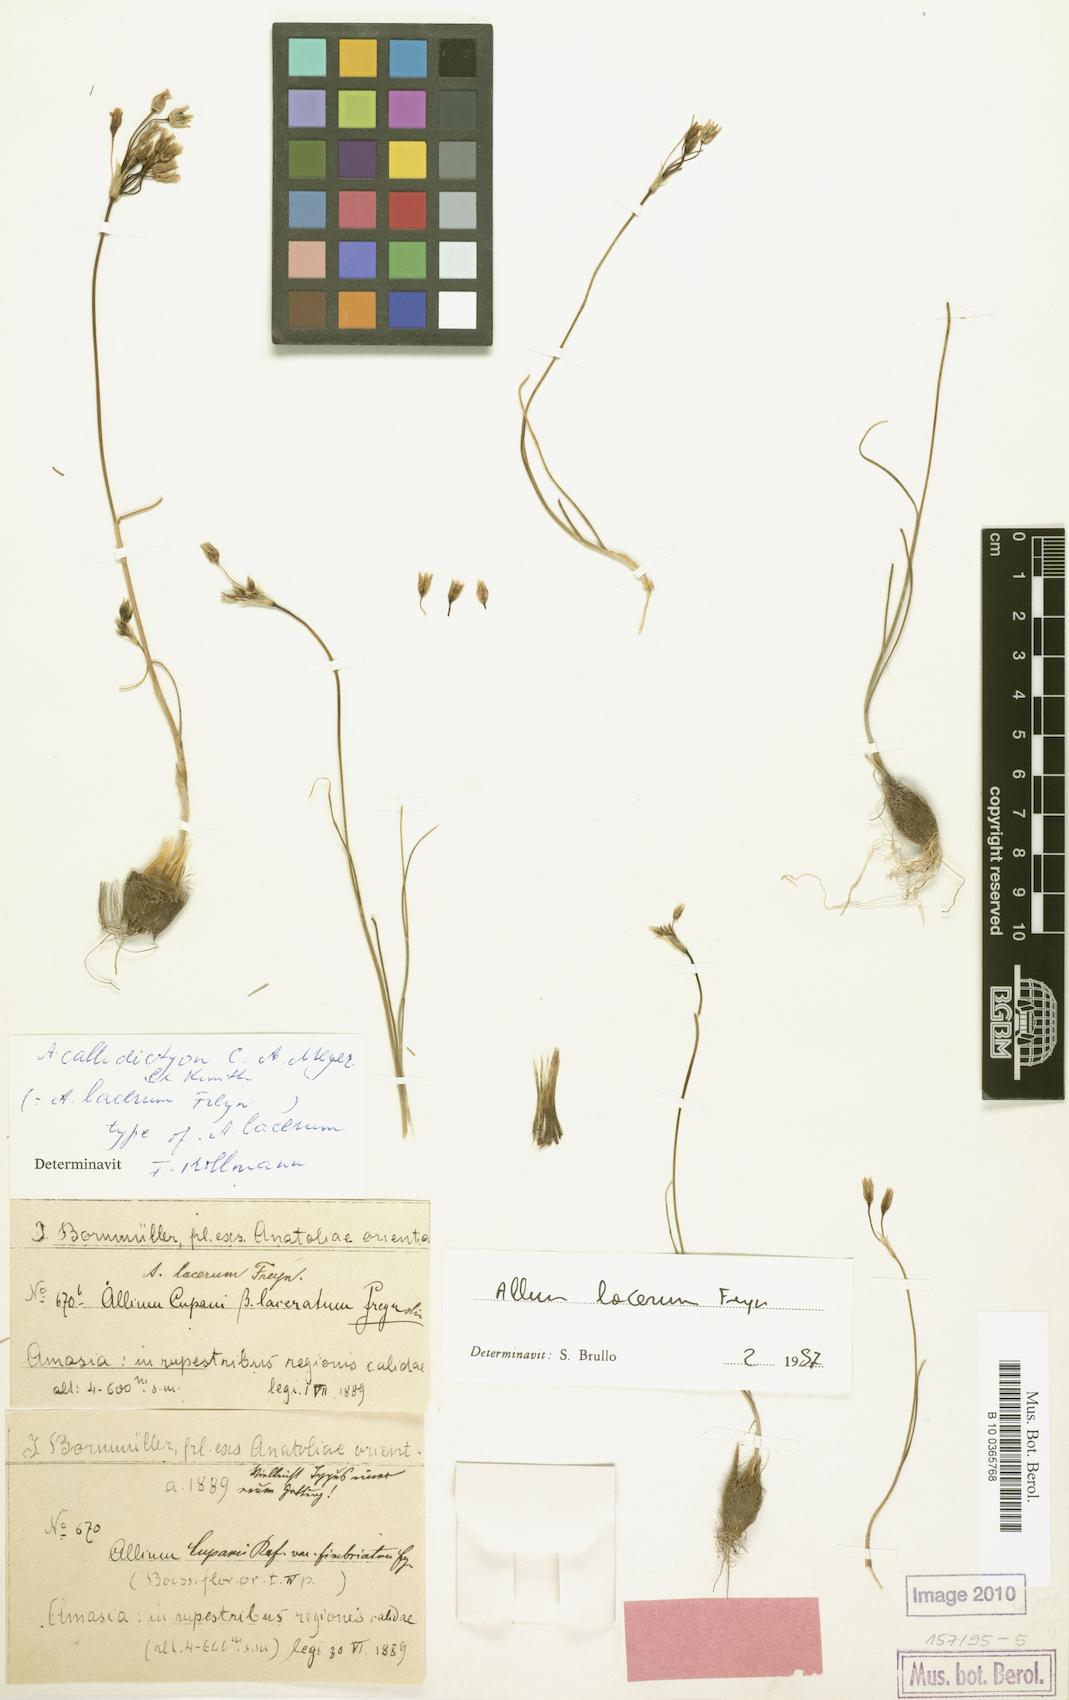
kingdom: Plantae
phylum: Tracheophyta
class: Liliopsida
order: Asparagales
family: Amaryllidaceae
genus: Allium
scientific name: Allium callidyction
